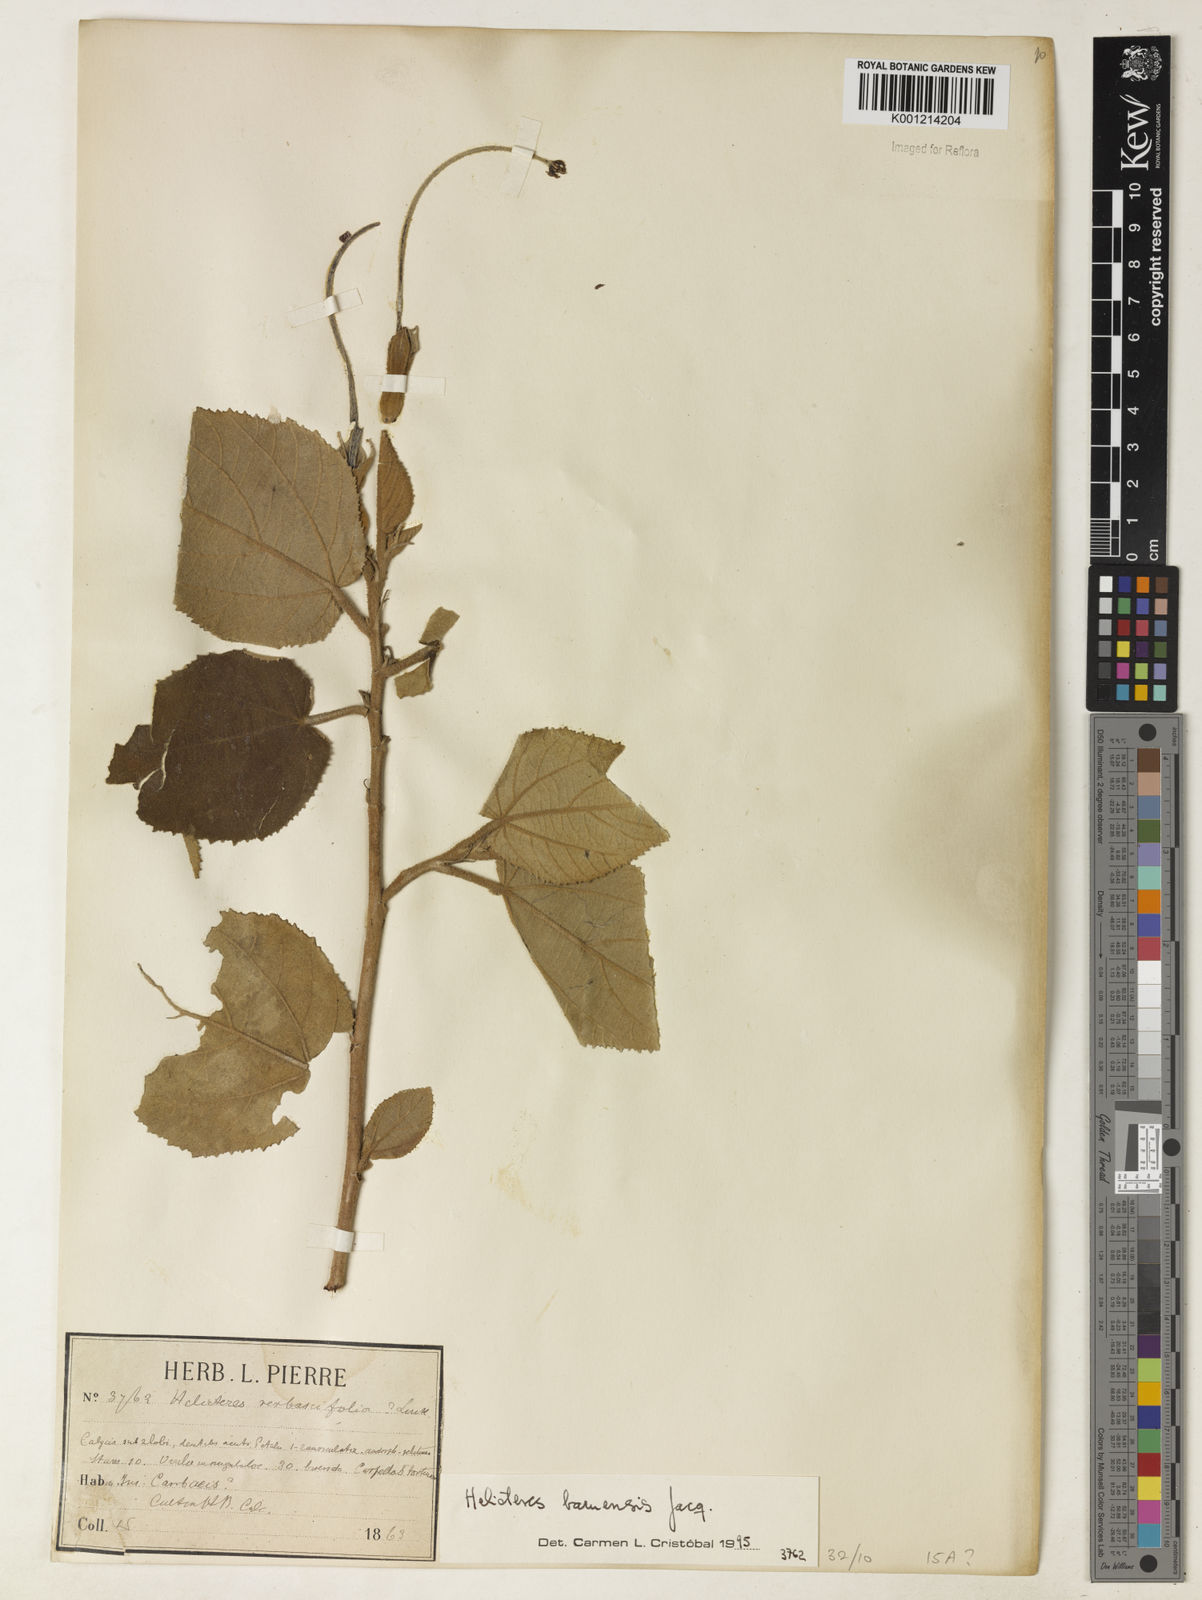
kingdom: Plantae
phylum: Tracheophyta
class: Magnoliopsida
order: Malvales
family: Malvaceae
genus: Helicteres
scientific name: Helicteres baruensis
